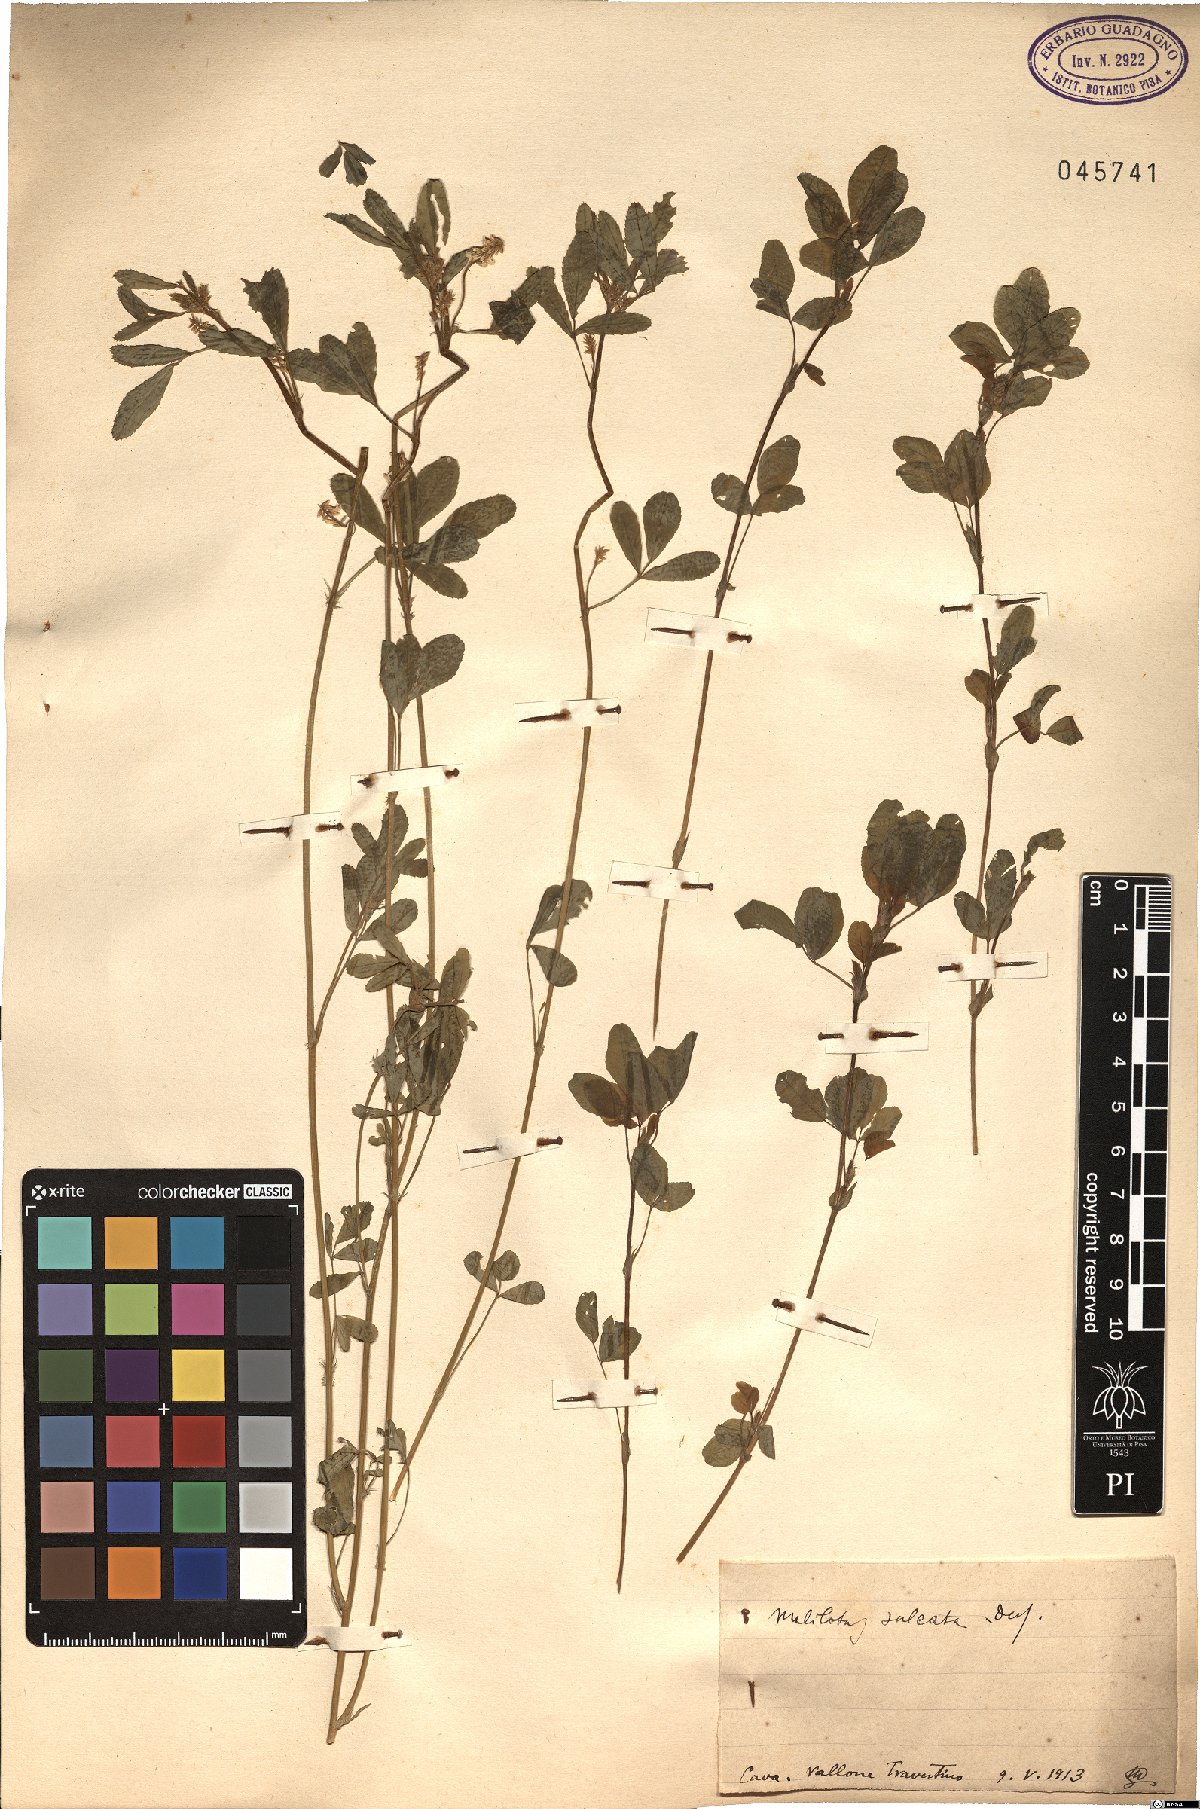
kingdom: Plantae
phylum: Tracheophyta
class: Magnoliopsida
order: Fabales
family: Fabaceae
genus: Melilotus
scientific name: Melilotus sulcatus
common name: Furrowed melilot
